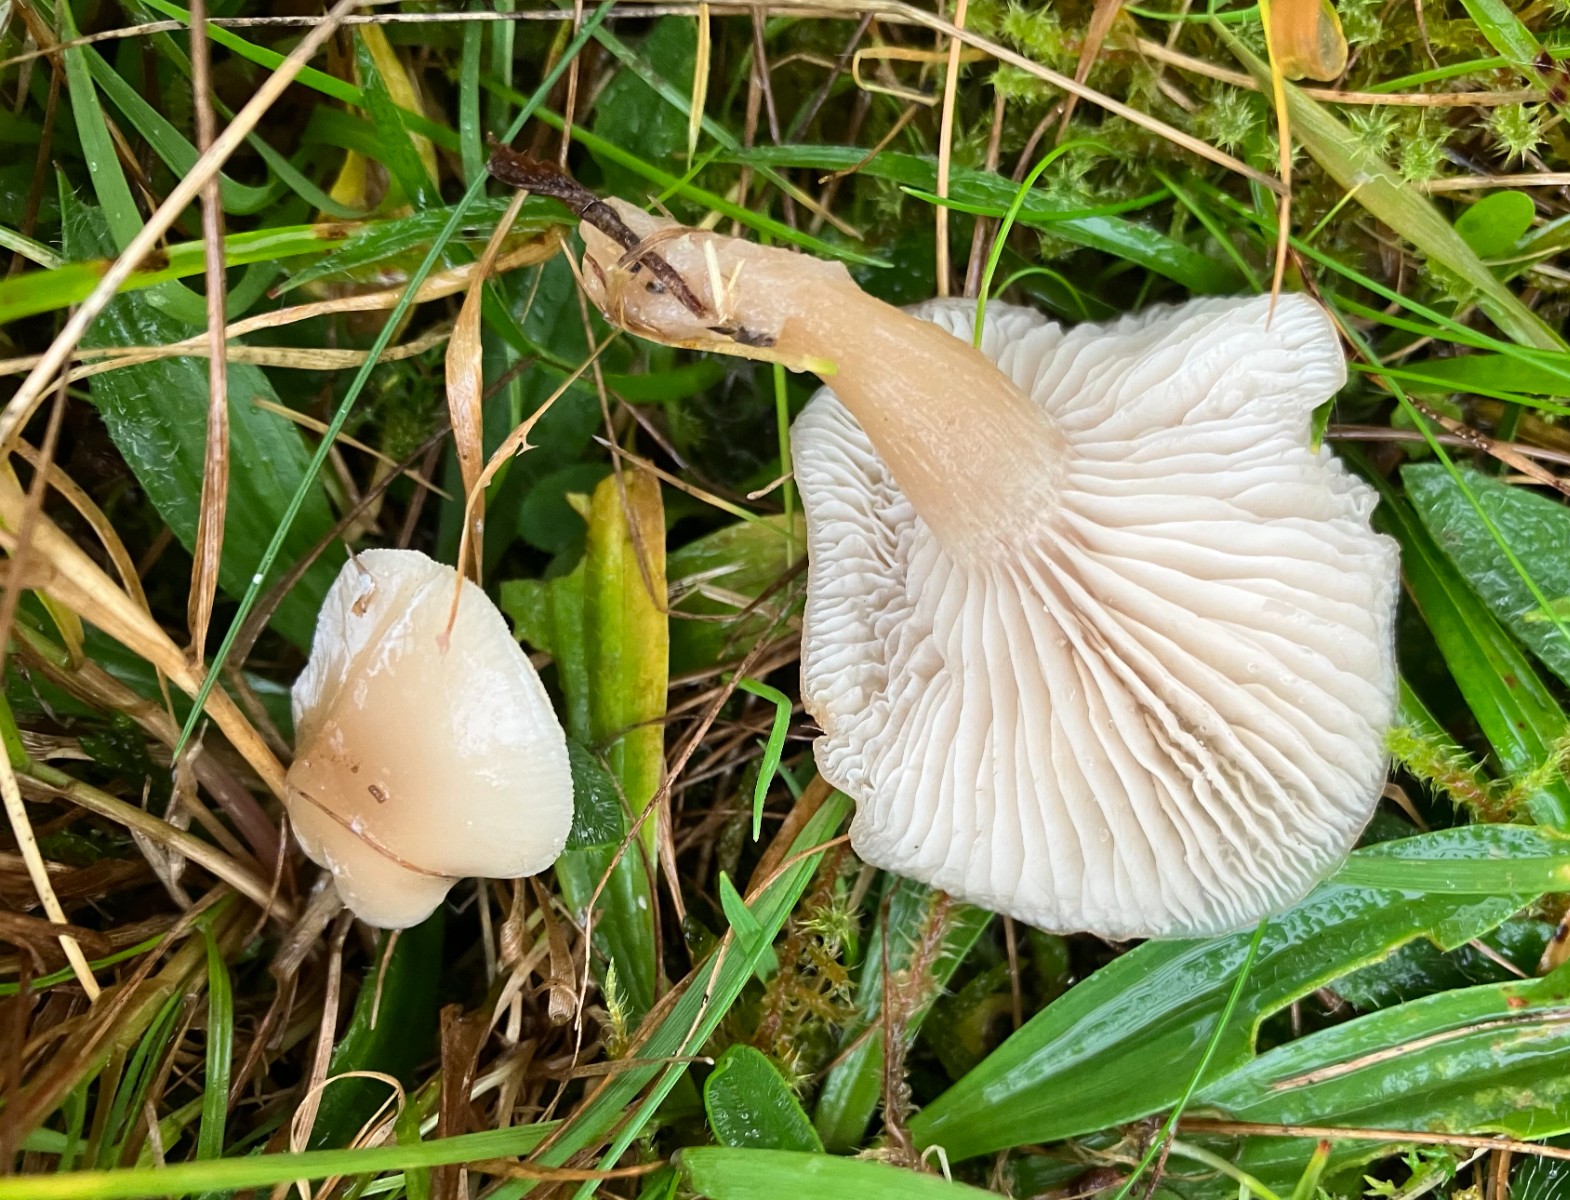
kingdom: Fungi
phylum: Basidiomycota
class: Agaricomycetes
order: Agaricales
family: Tricholomataceae
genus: Clitocybe
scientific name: Clitocybe fragrans
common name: vellugtende tragthat
